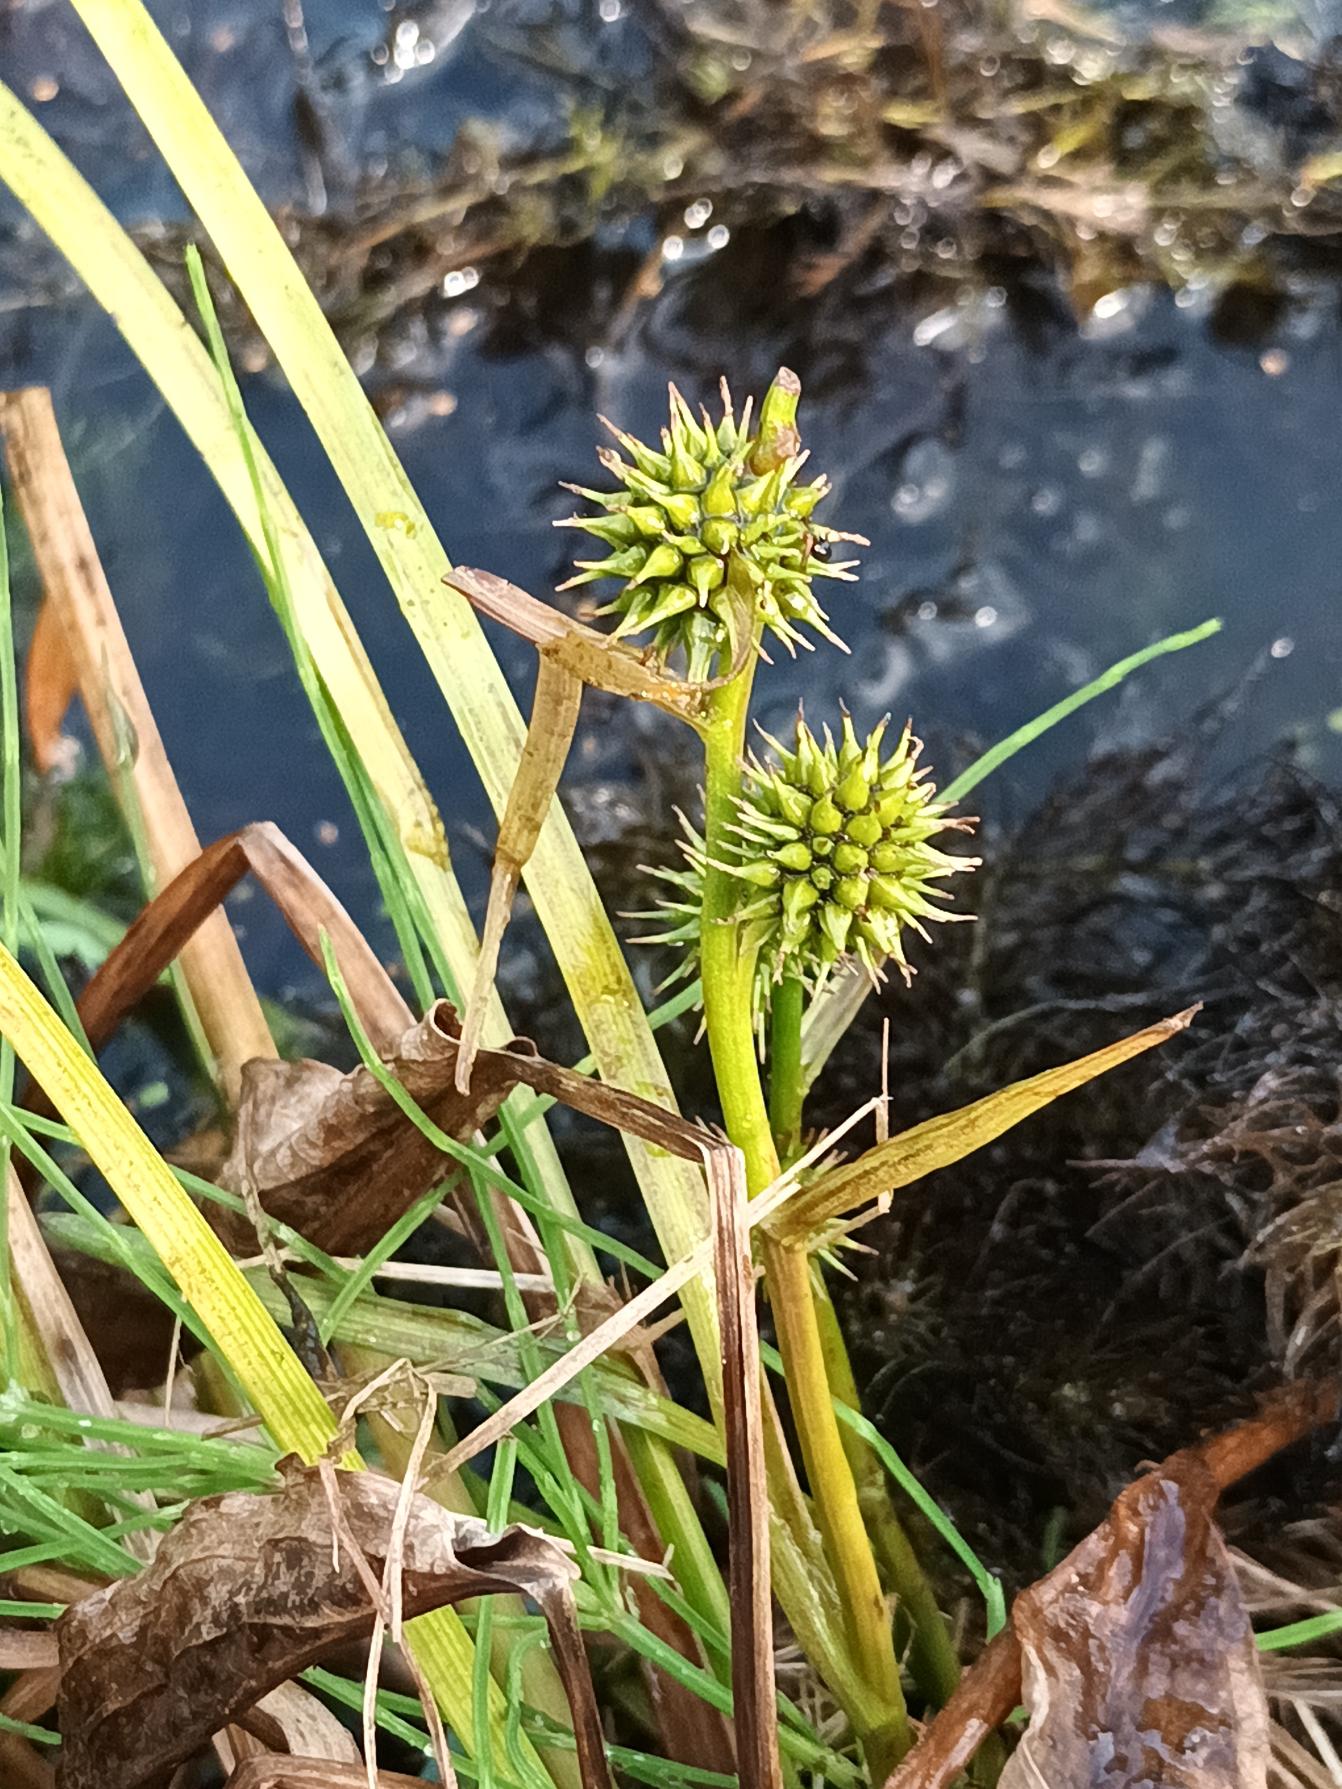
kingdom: Plantae
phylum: Tracheophyta
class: Liliopsida
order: Poales
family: Typhaceae
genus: Sparganium
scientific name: Sparganium emersum
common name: Enkelt pindsvineknop
